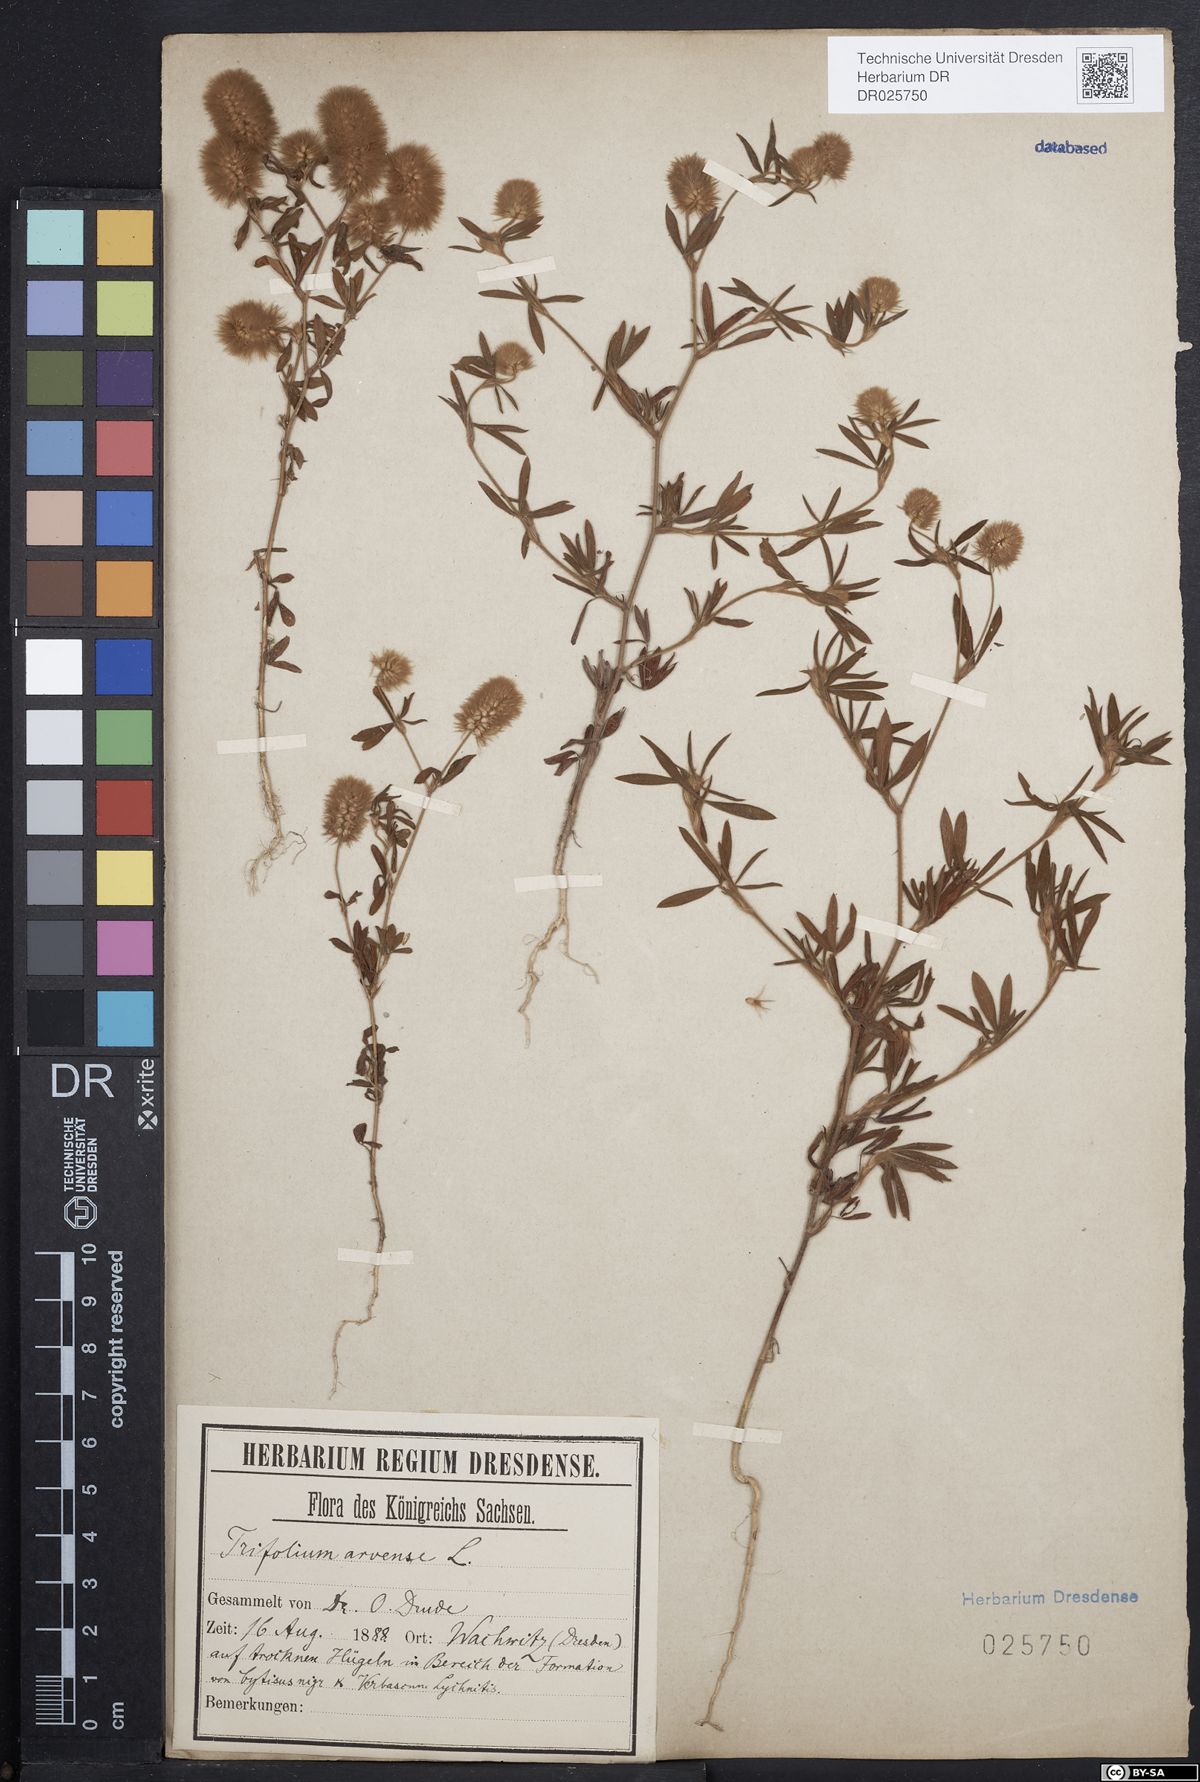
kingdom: Plantae
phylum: Tracheophyta
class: Magnoliopsida
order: Fabales
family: Fabaceae
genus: Trifolium
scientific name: Trifolium arvense
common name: Hare's-foot clover
